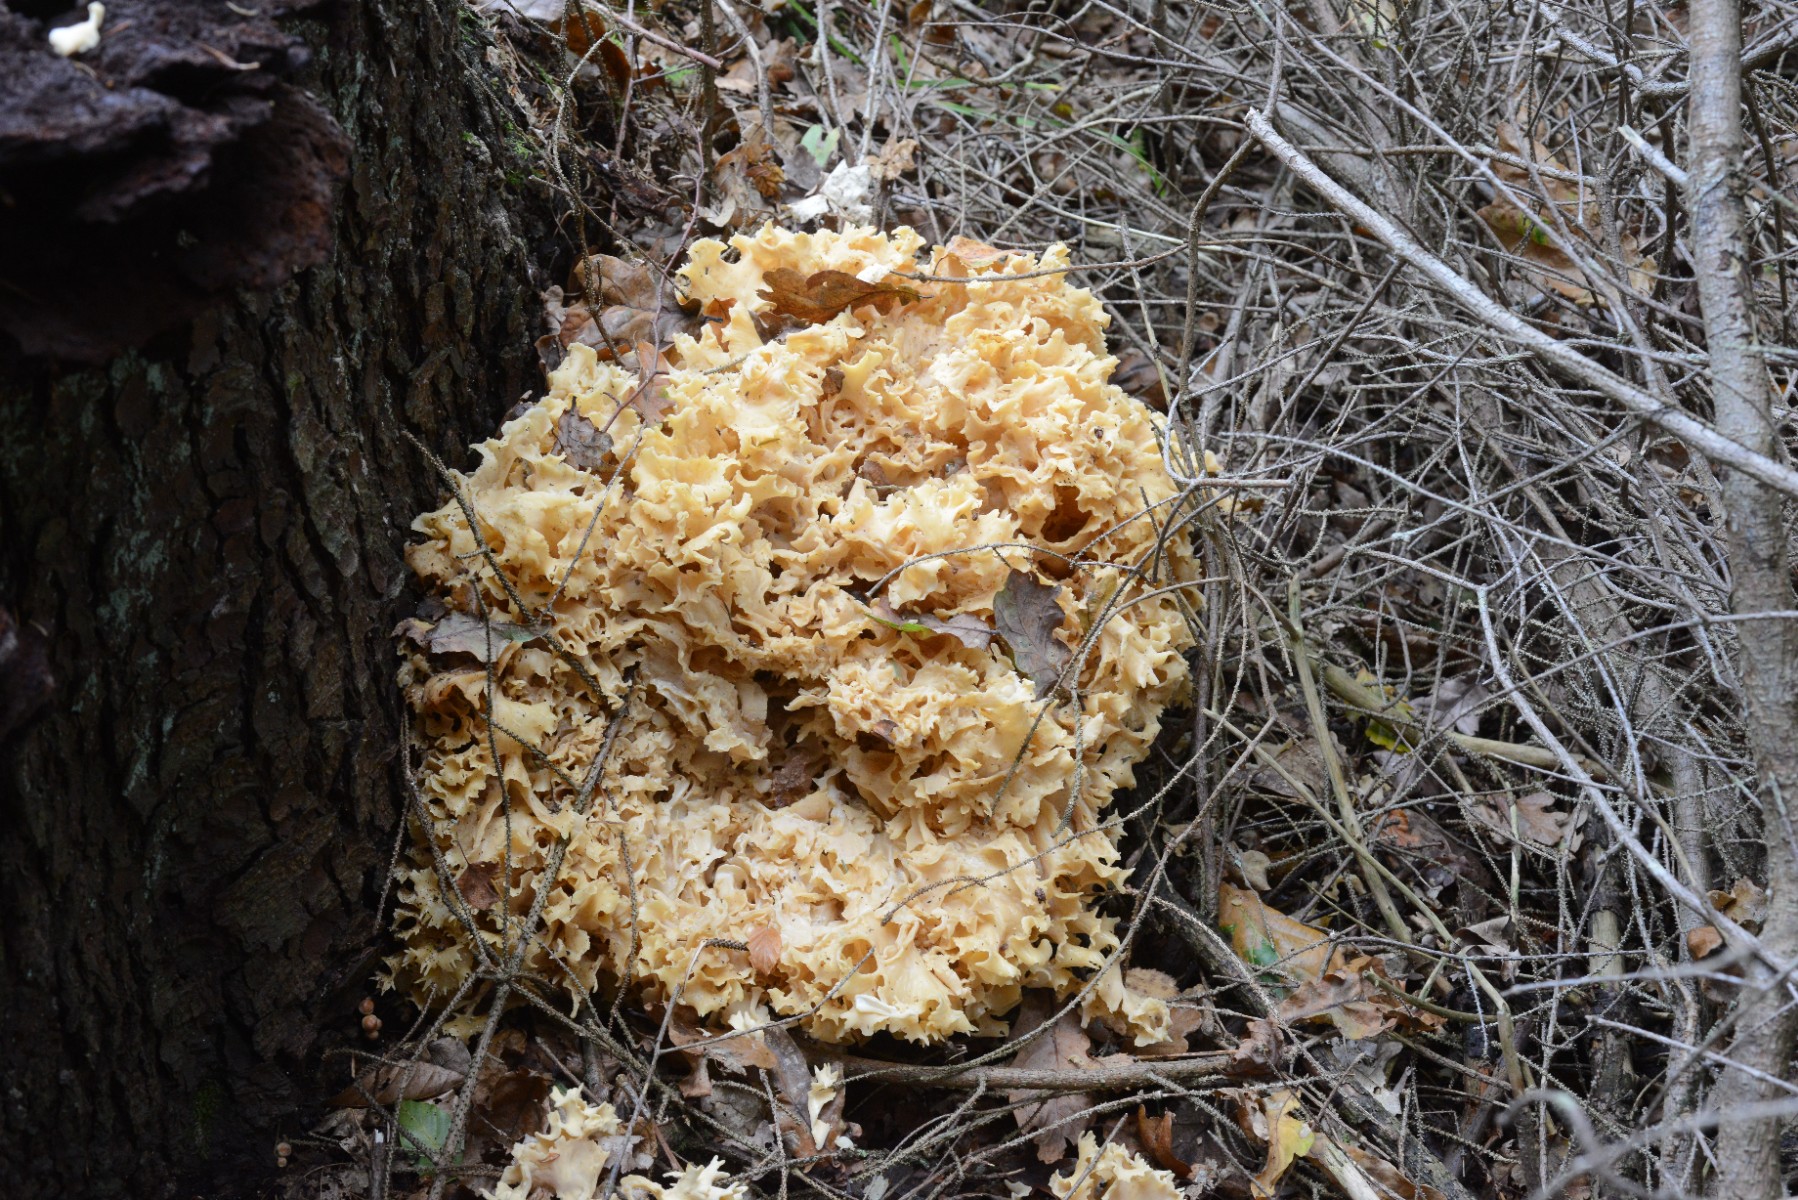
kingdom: Fungi
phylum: Basidiomycota
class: Agaricomycetes
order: Polyporales
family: Sparassidaceae
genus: Sparassis
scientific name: Sparassis crispa
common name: kruset blomkålssvamp
